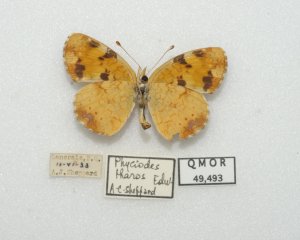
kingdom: Animalia
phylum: Arthropoda
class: Insecta
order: Lepidoptera
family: Nymphalidae
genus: Phyciodes
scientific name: Phyciodes tharos
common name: Northern Crescent
